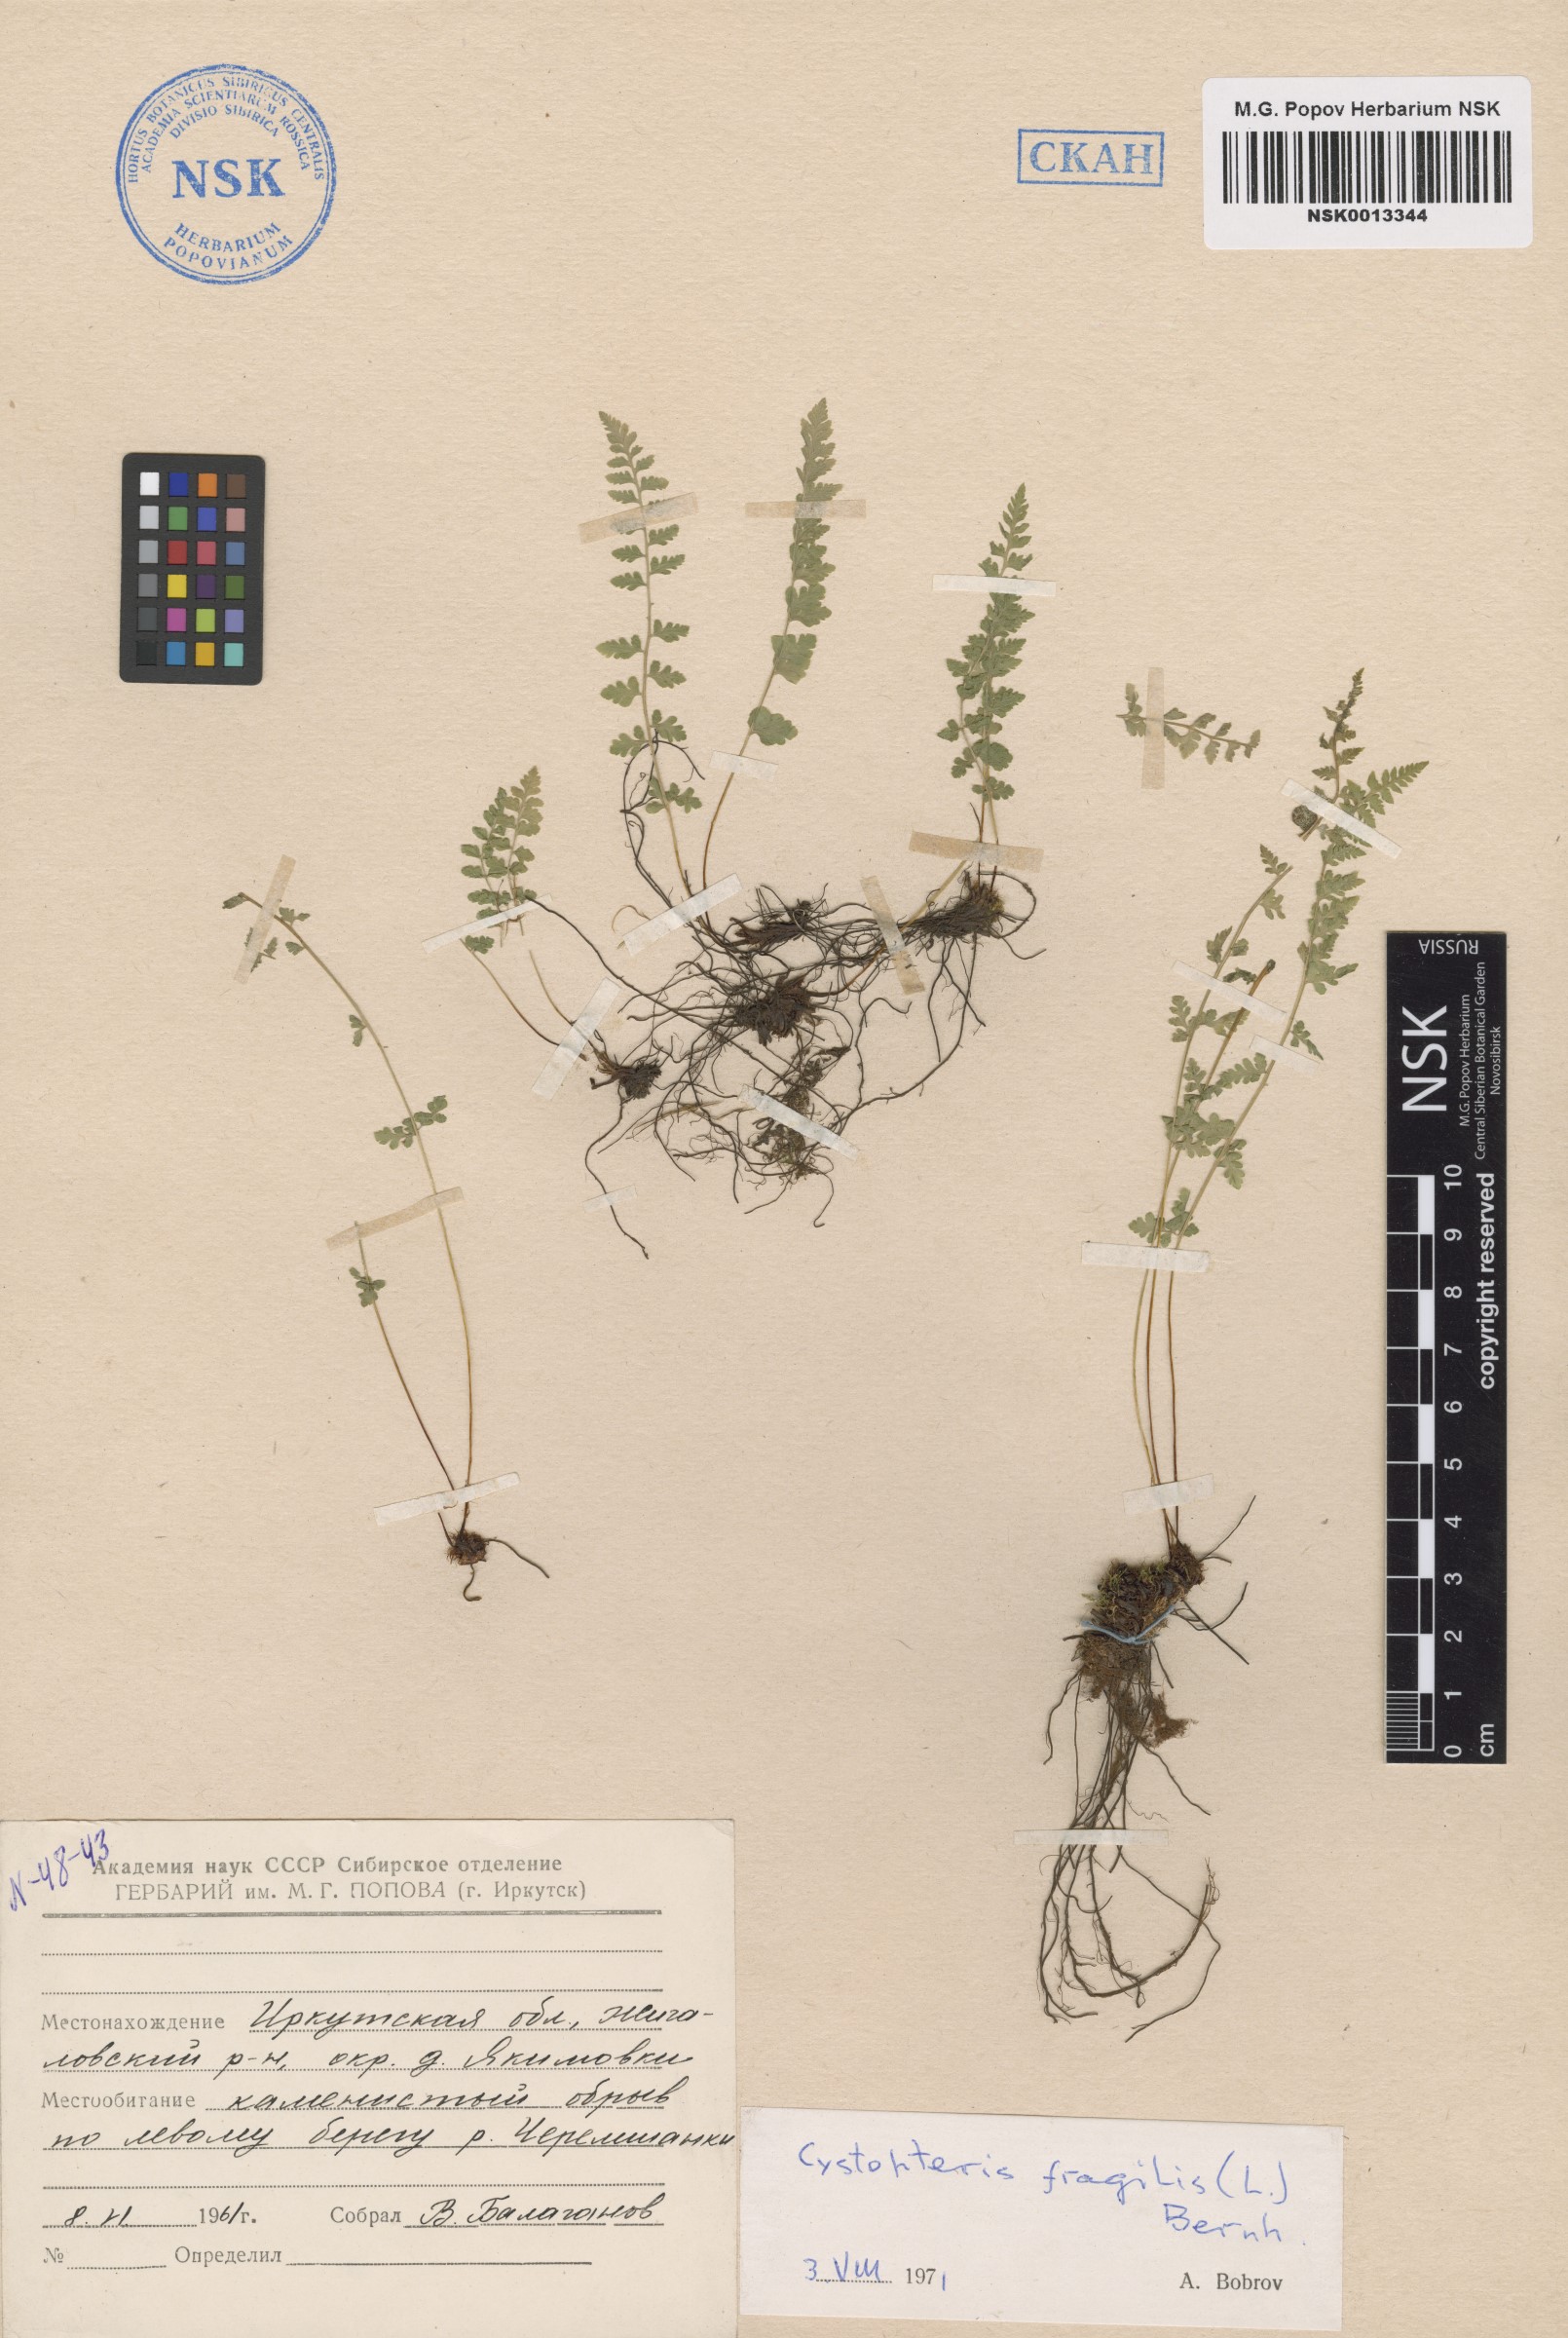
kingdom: Plantae
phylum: Tracheophyta
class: Polypodiopsida
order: Polypodiales
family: Cystopteridaceae
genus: Cystopteris
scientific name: Cystopteris fragilis
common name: Brittle bladder fern
